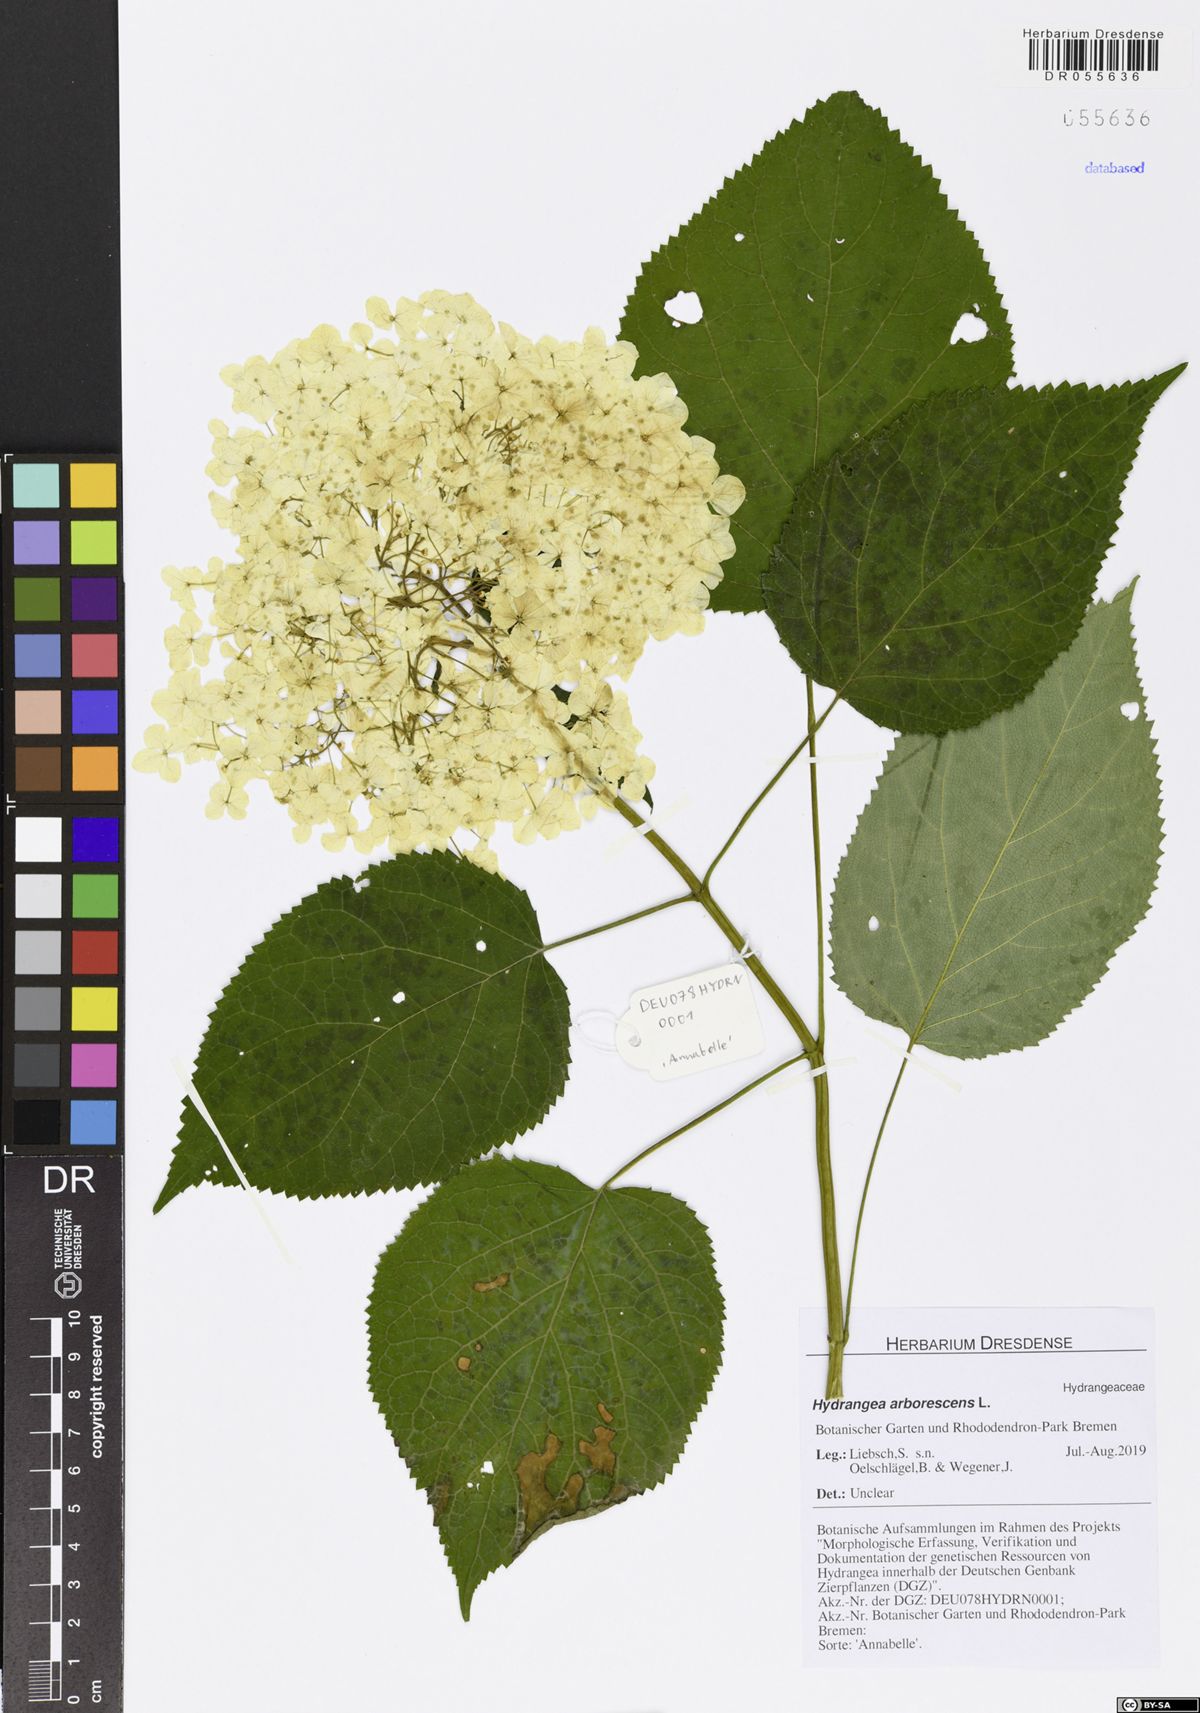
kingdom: Plantae
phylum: Tracheophyta
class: Magnoliopsida
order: Cornales
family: Hydrangeaceae
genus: Hydrangea
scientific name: Hydrangea arborescens
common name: Sevenbark
